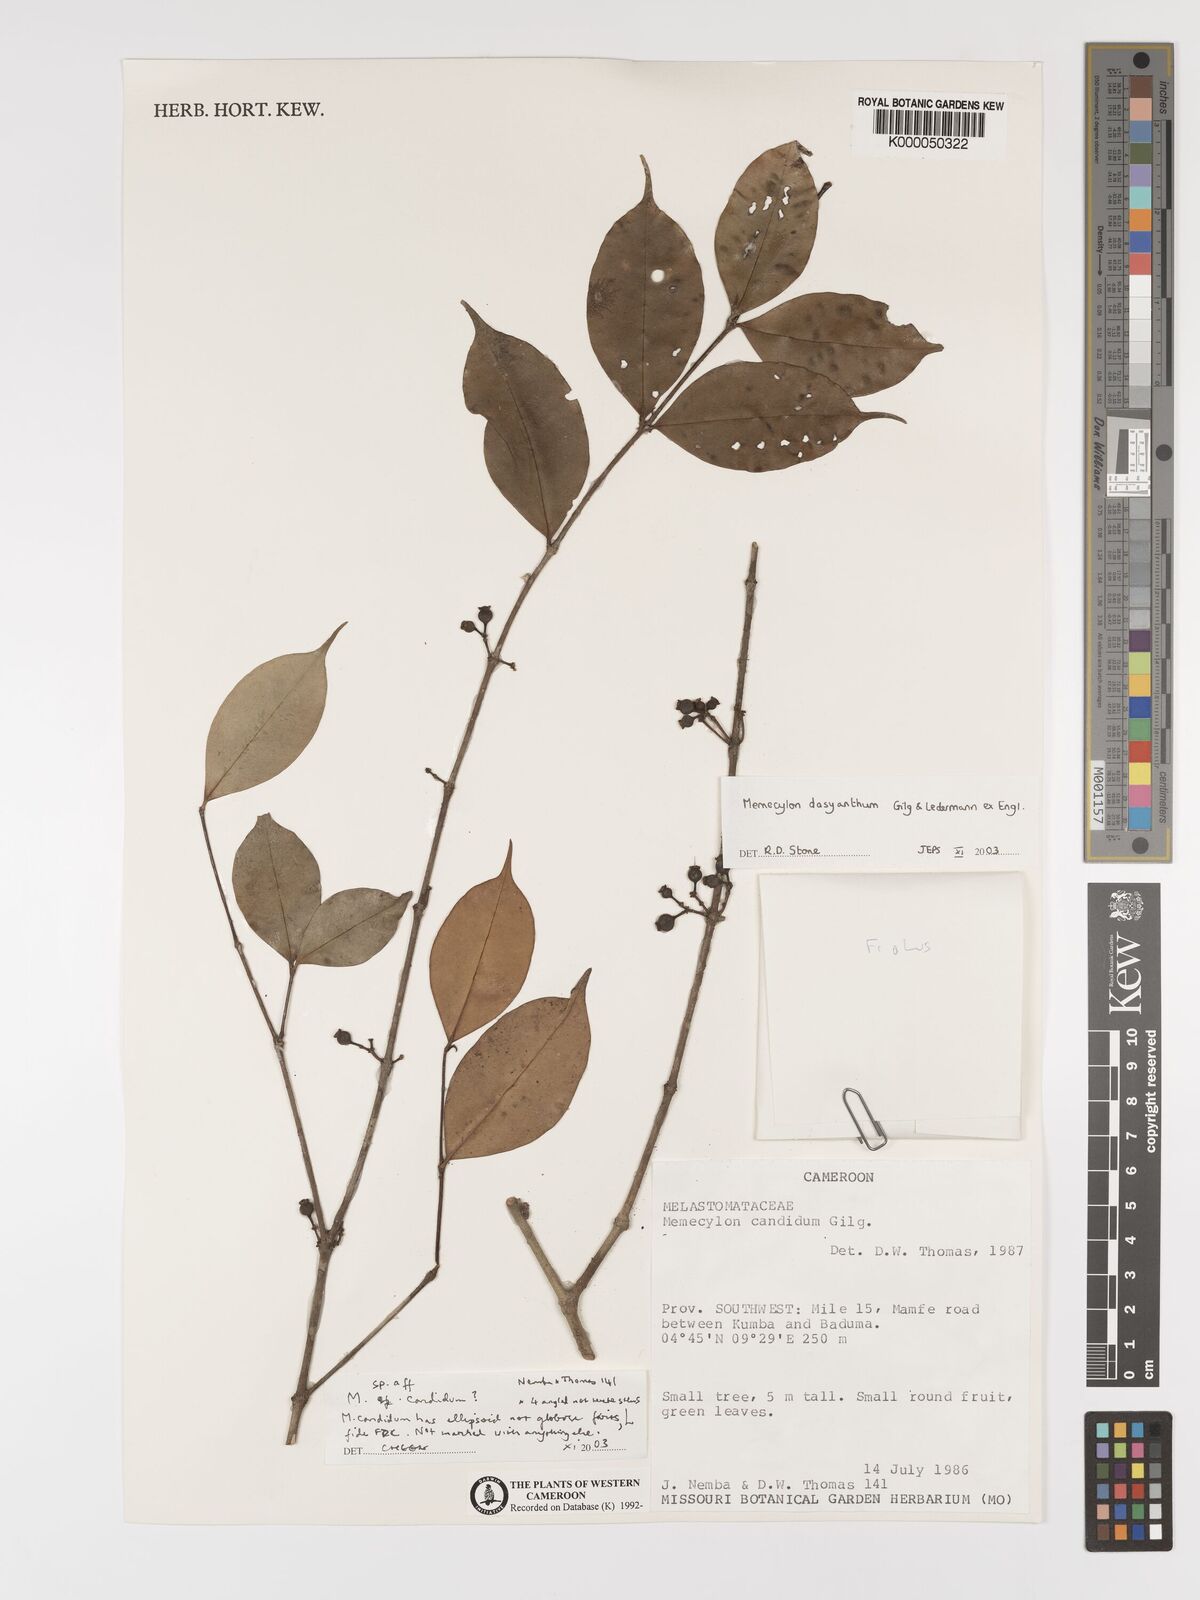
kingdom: Plantae
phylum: Tracheophyta
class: Magnoliopsida
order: Myrtales
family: Melastomataceae
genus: Memecylon
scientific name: Memecylon dasyanthum
